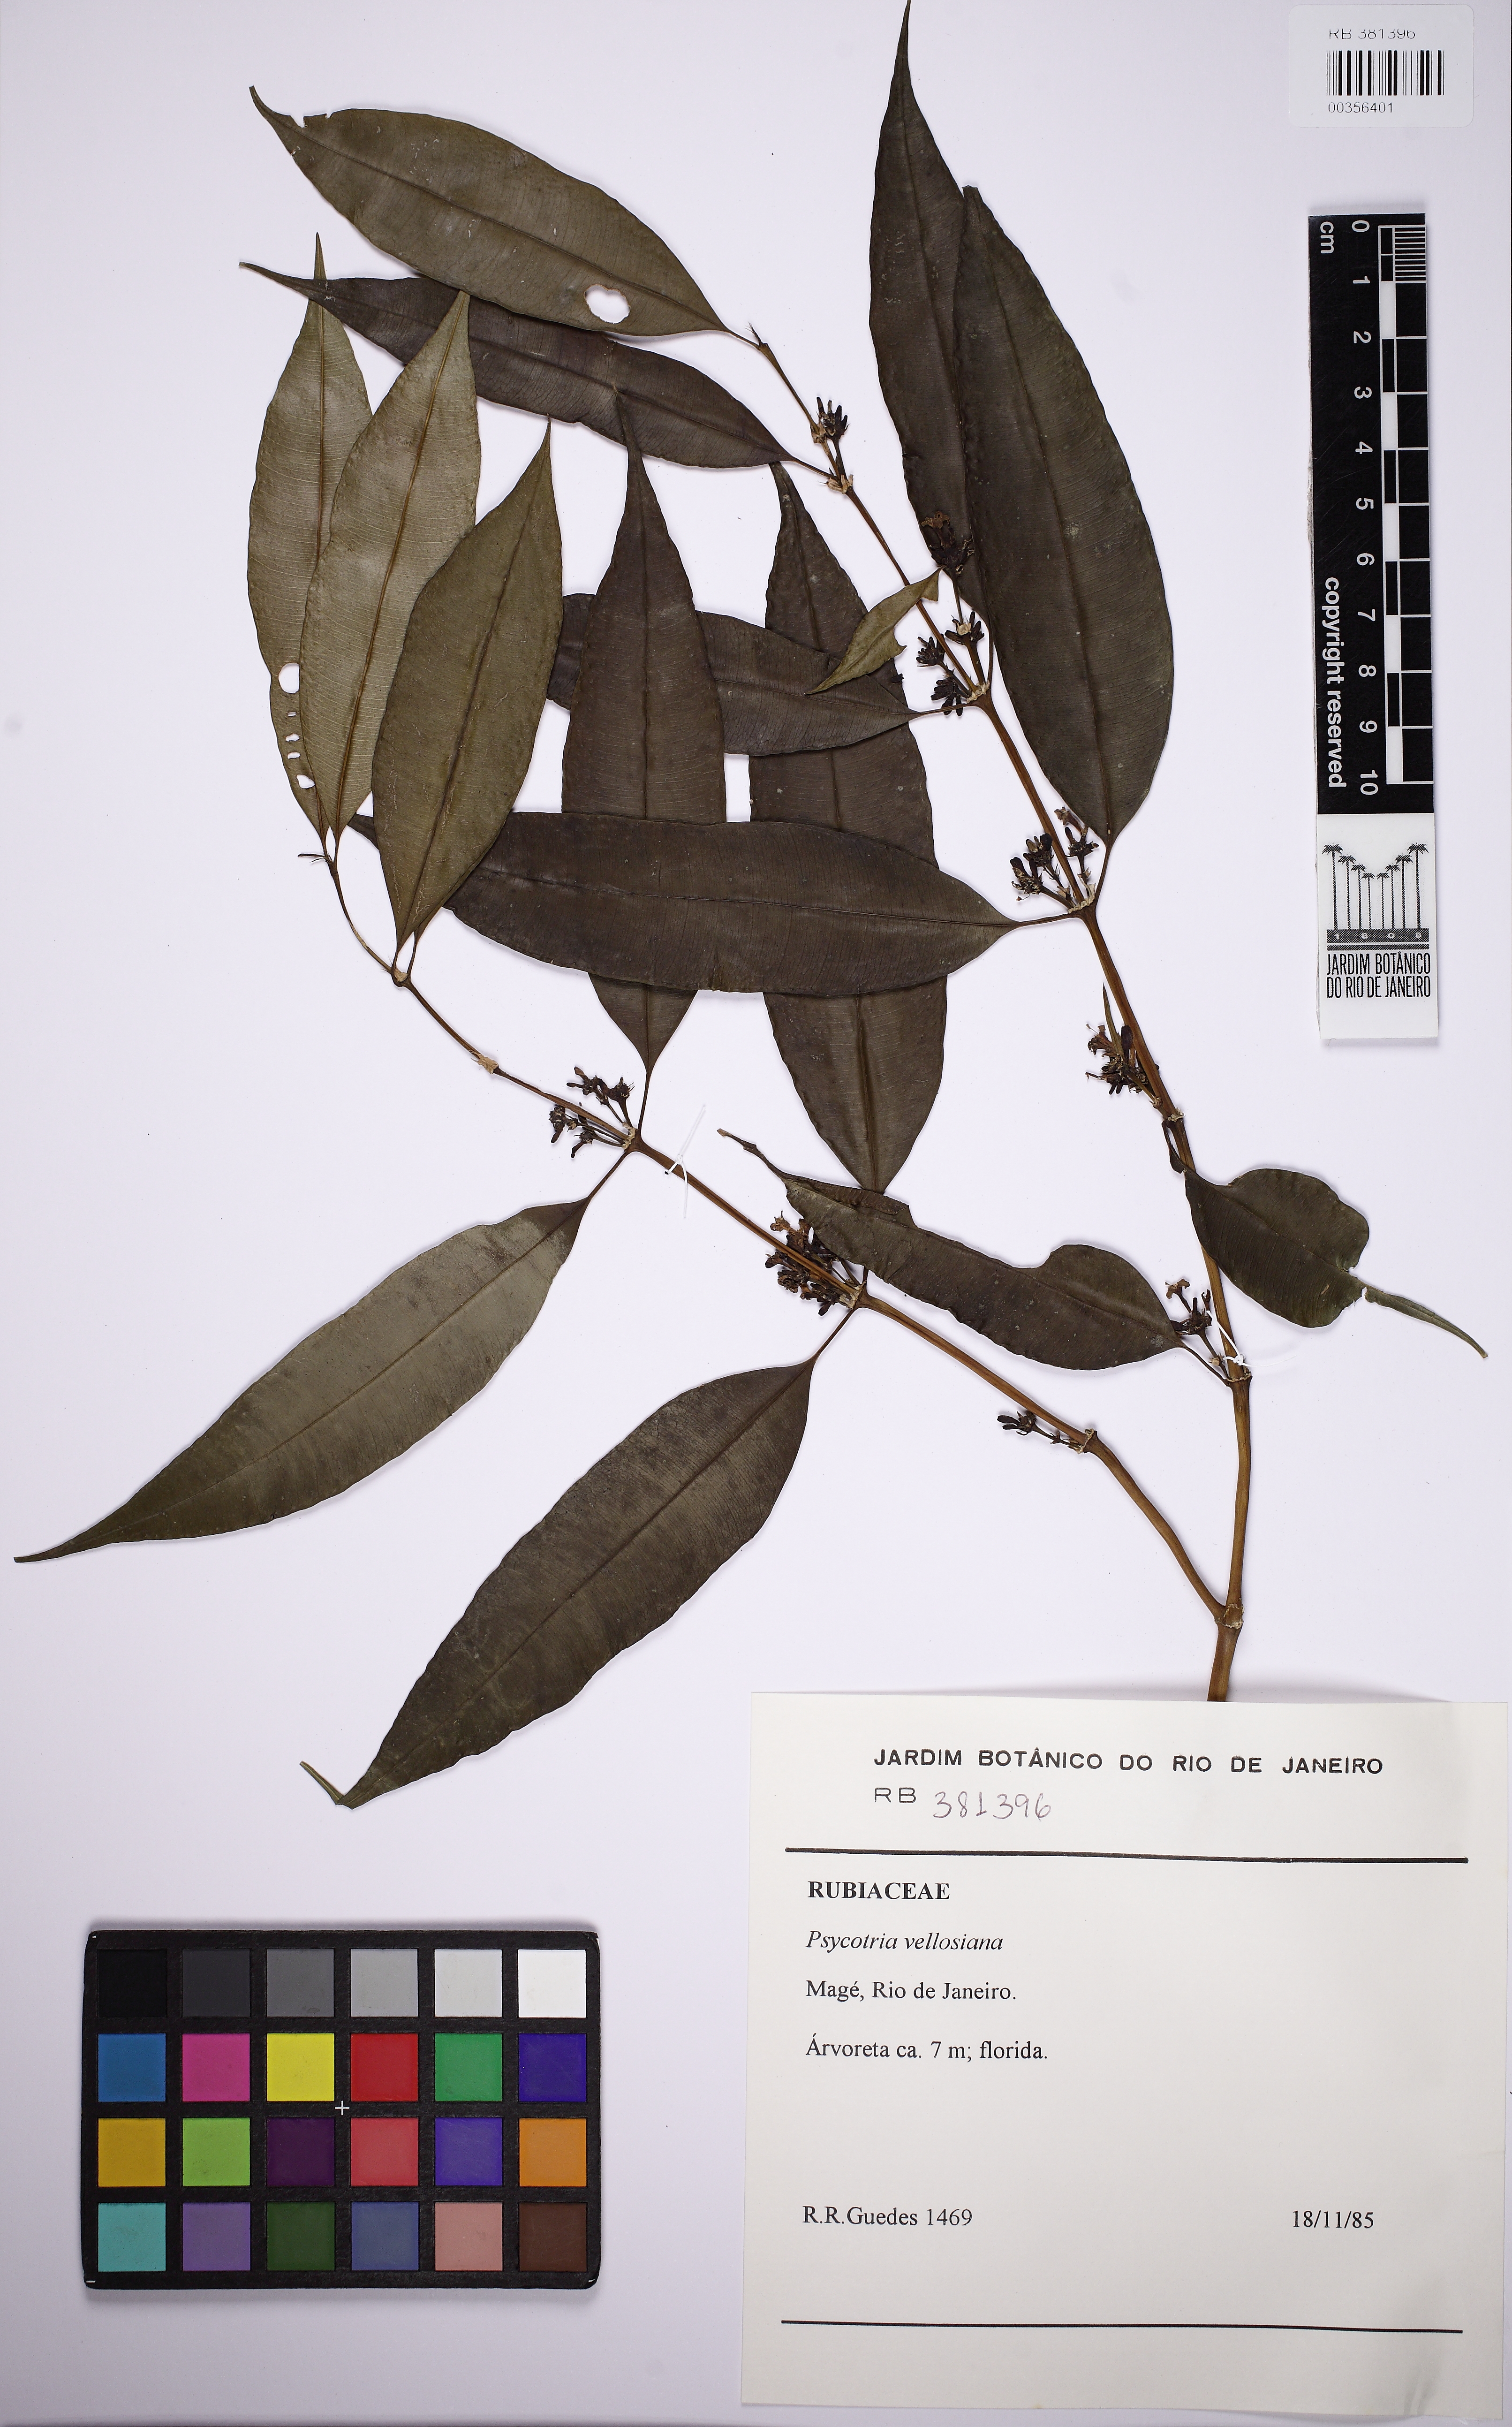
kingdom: Plantae
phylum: Tracheophyta
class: Magnoliopsida
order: Gentianales
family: Rubiaceae
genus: Palicourea
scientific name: Palicourea sessilis
